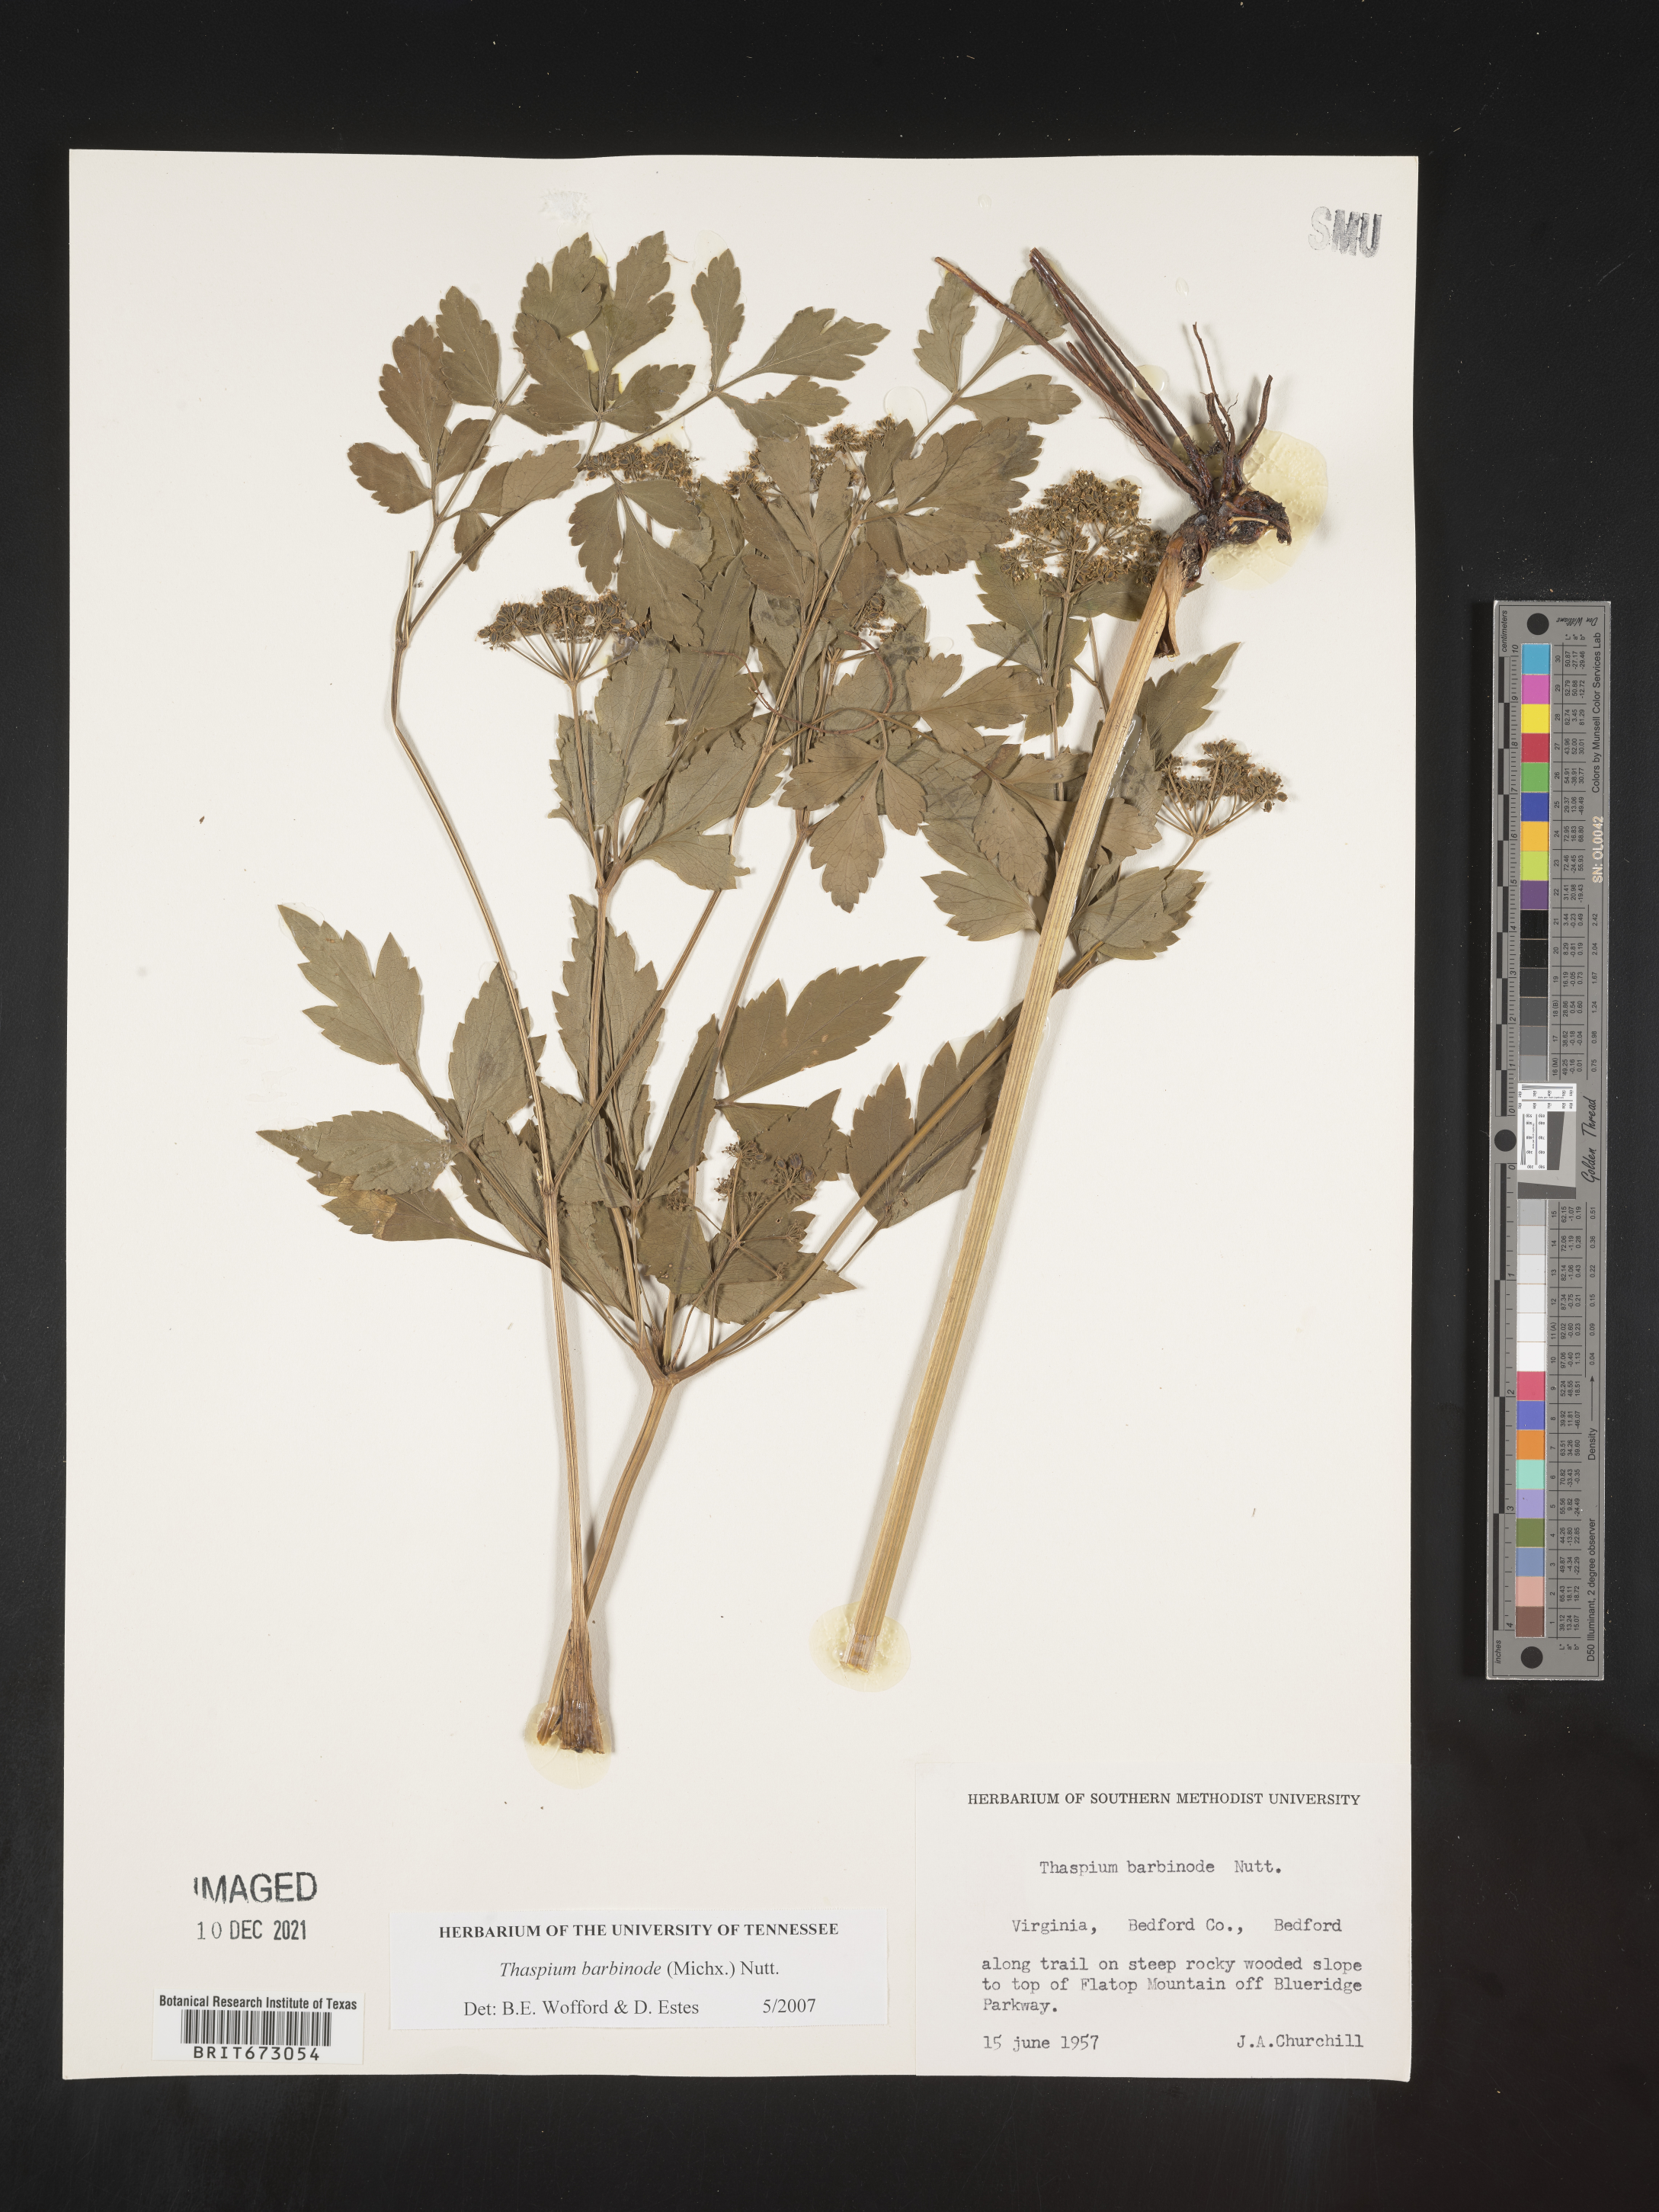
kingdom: Plantae
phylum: Tracheophyta
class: Magnoliopsida
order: Apiales
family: Apiaceae
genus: Thaspium
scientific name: Thaspium barbinode
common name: Bearded meadow-parsnip
